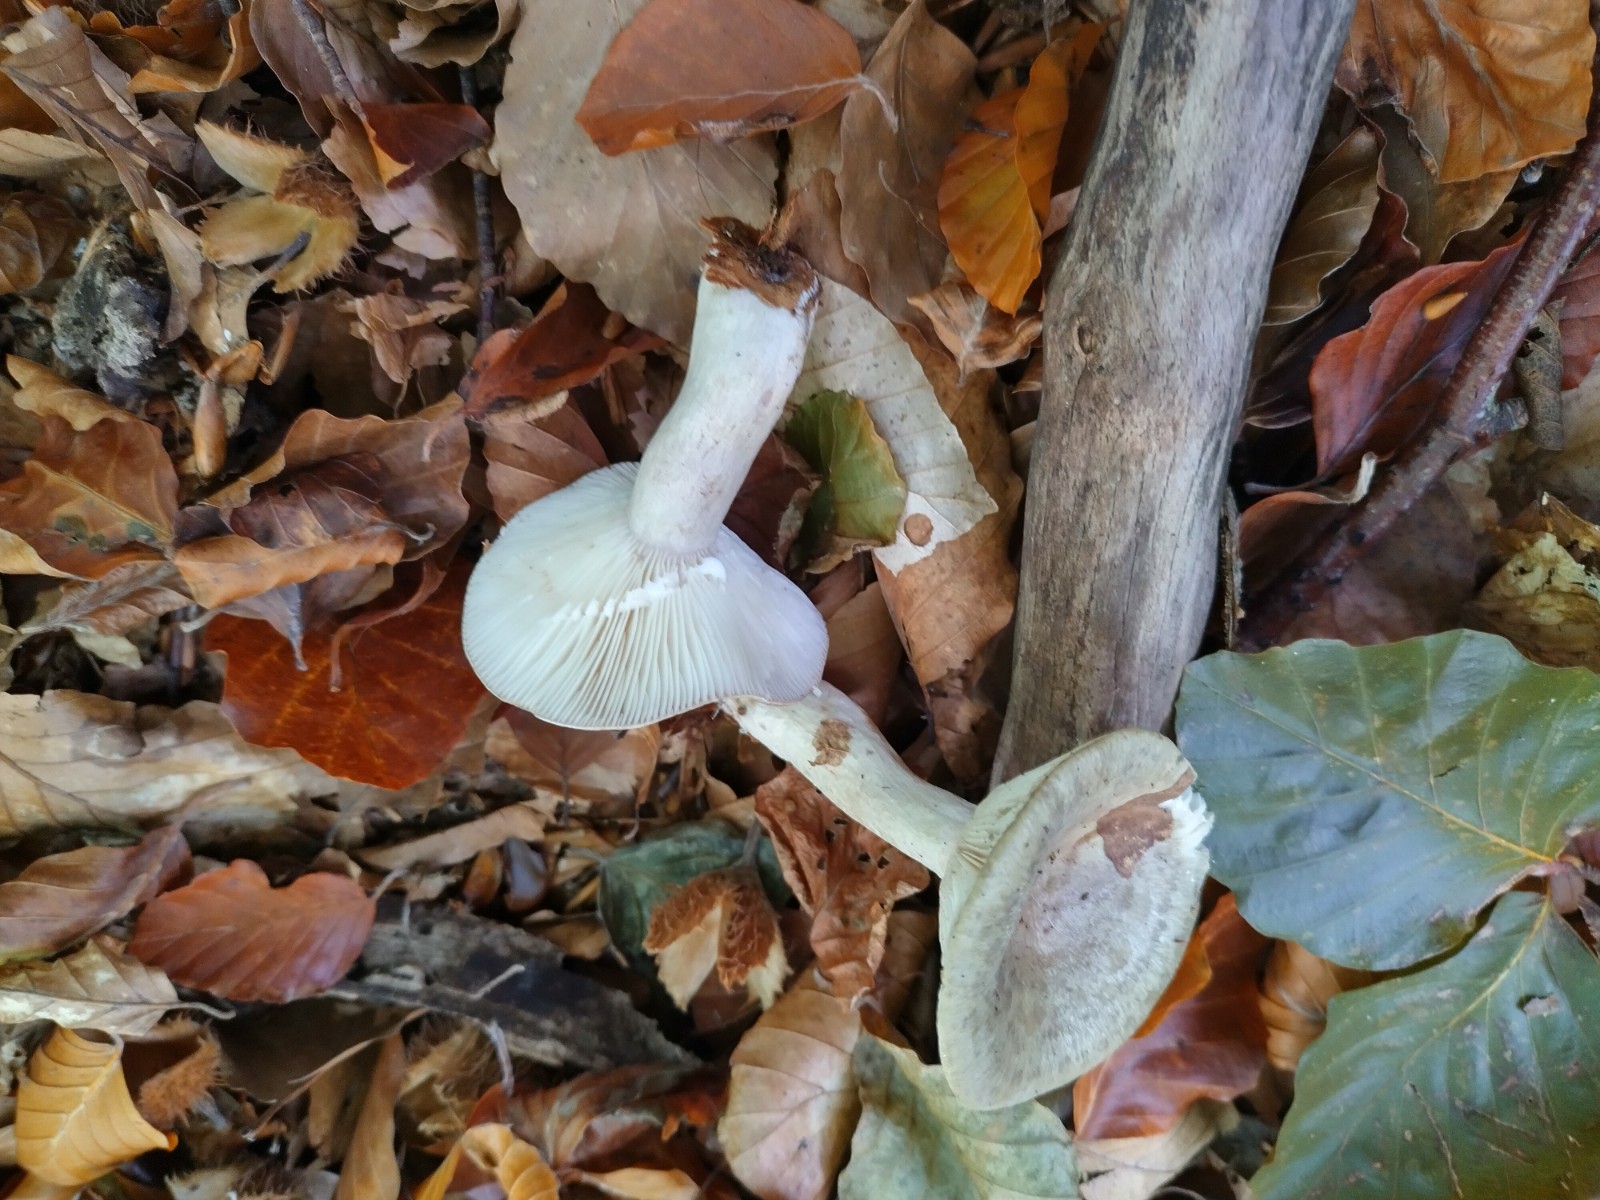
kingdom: Fungi
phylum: Basidiomycota
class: Agaricomycetes
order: Russulales
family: Russulaceae
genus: Lactarius
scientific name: Lactarius blennius
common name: dråbeplettet mælkehat
